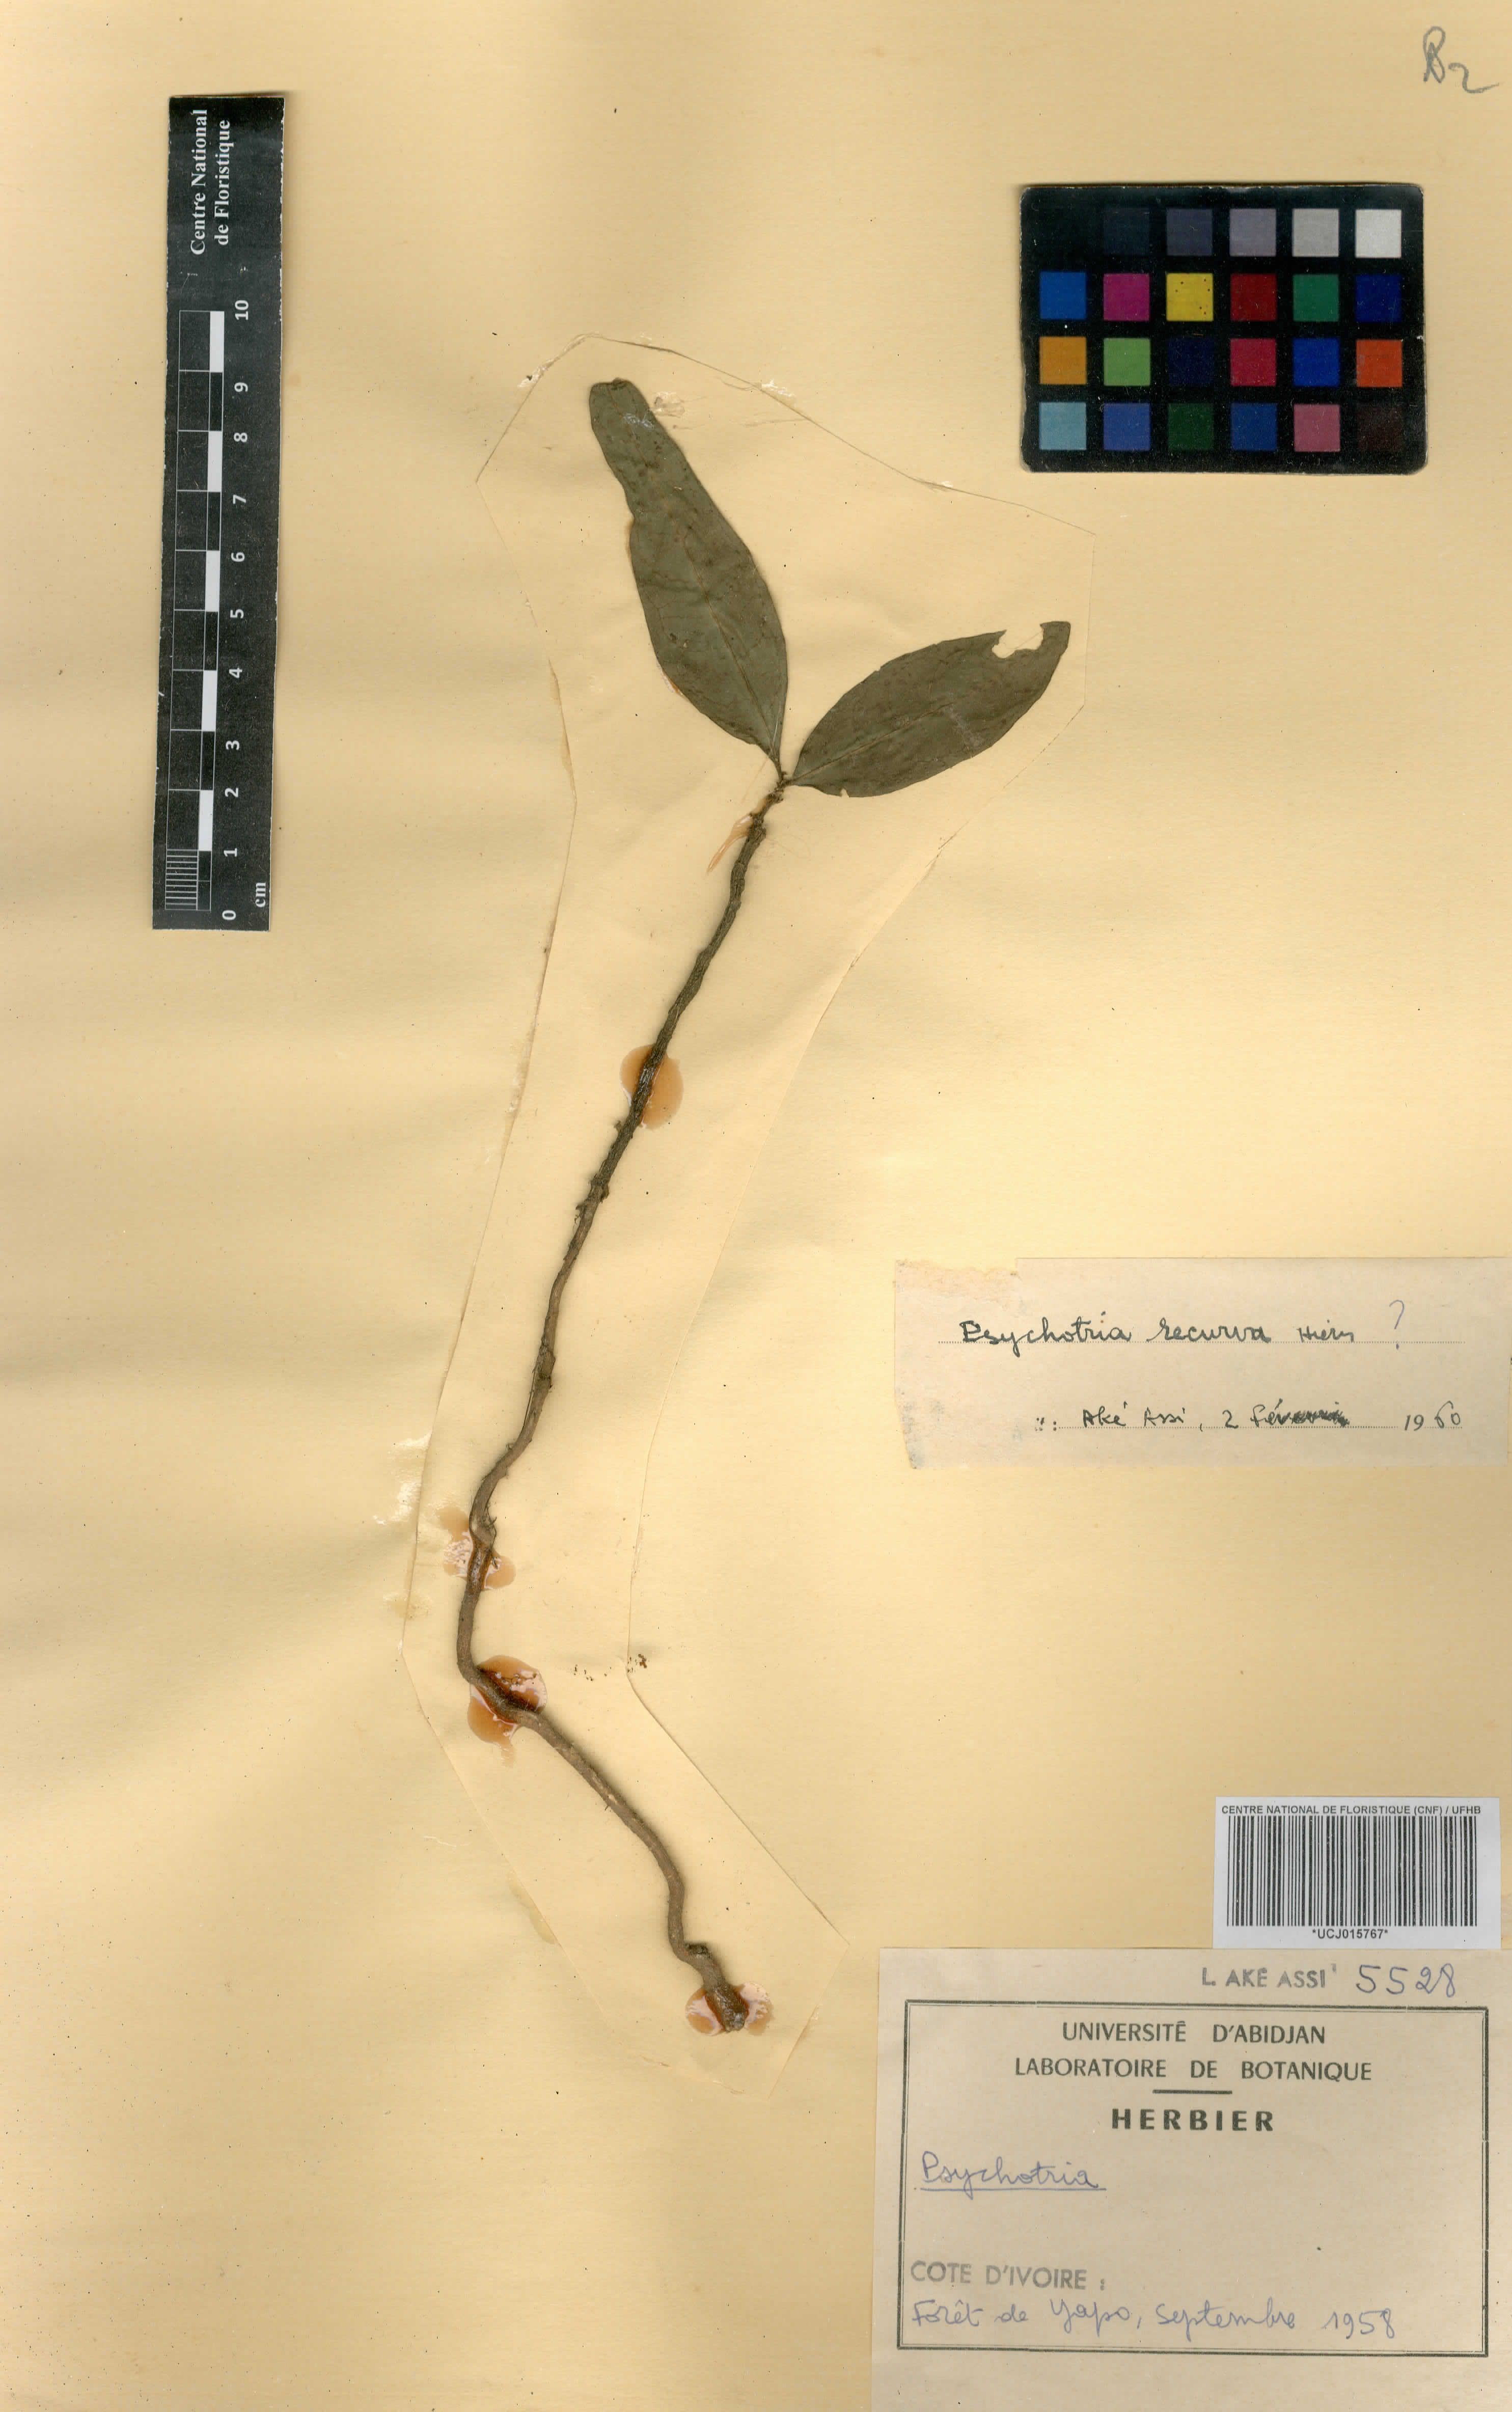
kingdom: Plantae
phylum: Tracheophyta
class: Magnoliopsida
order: Gentianales
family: Rubiaceae
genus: Psychotria
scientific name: Psychotria
